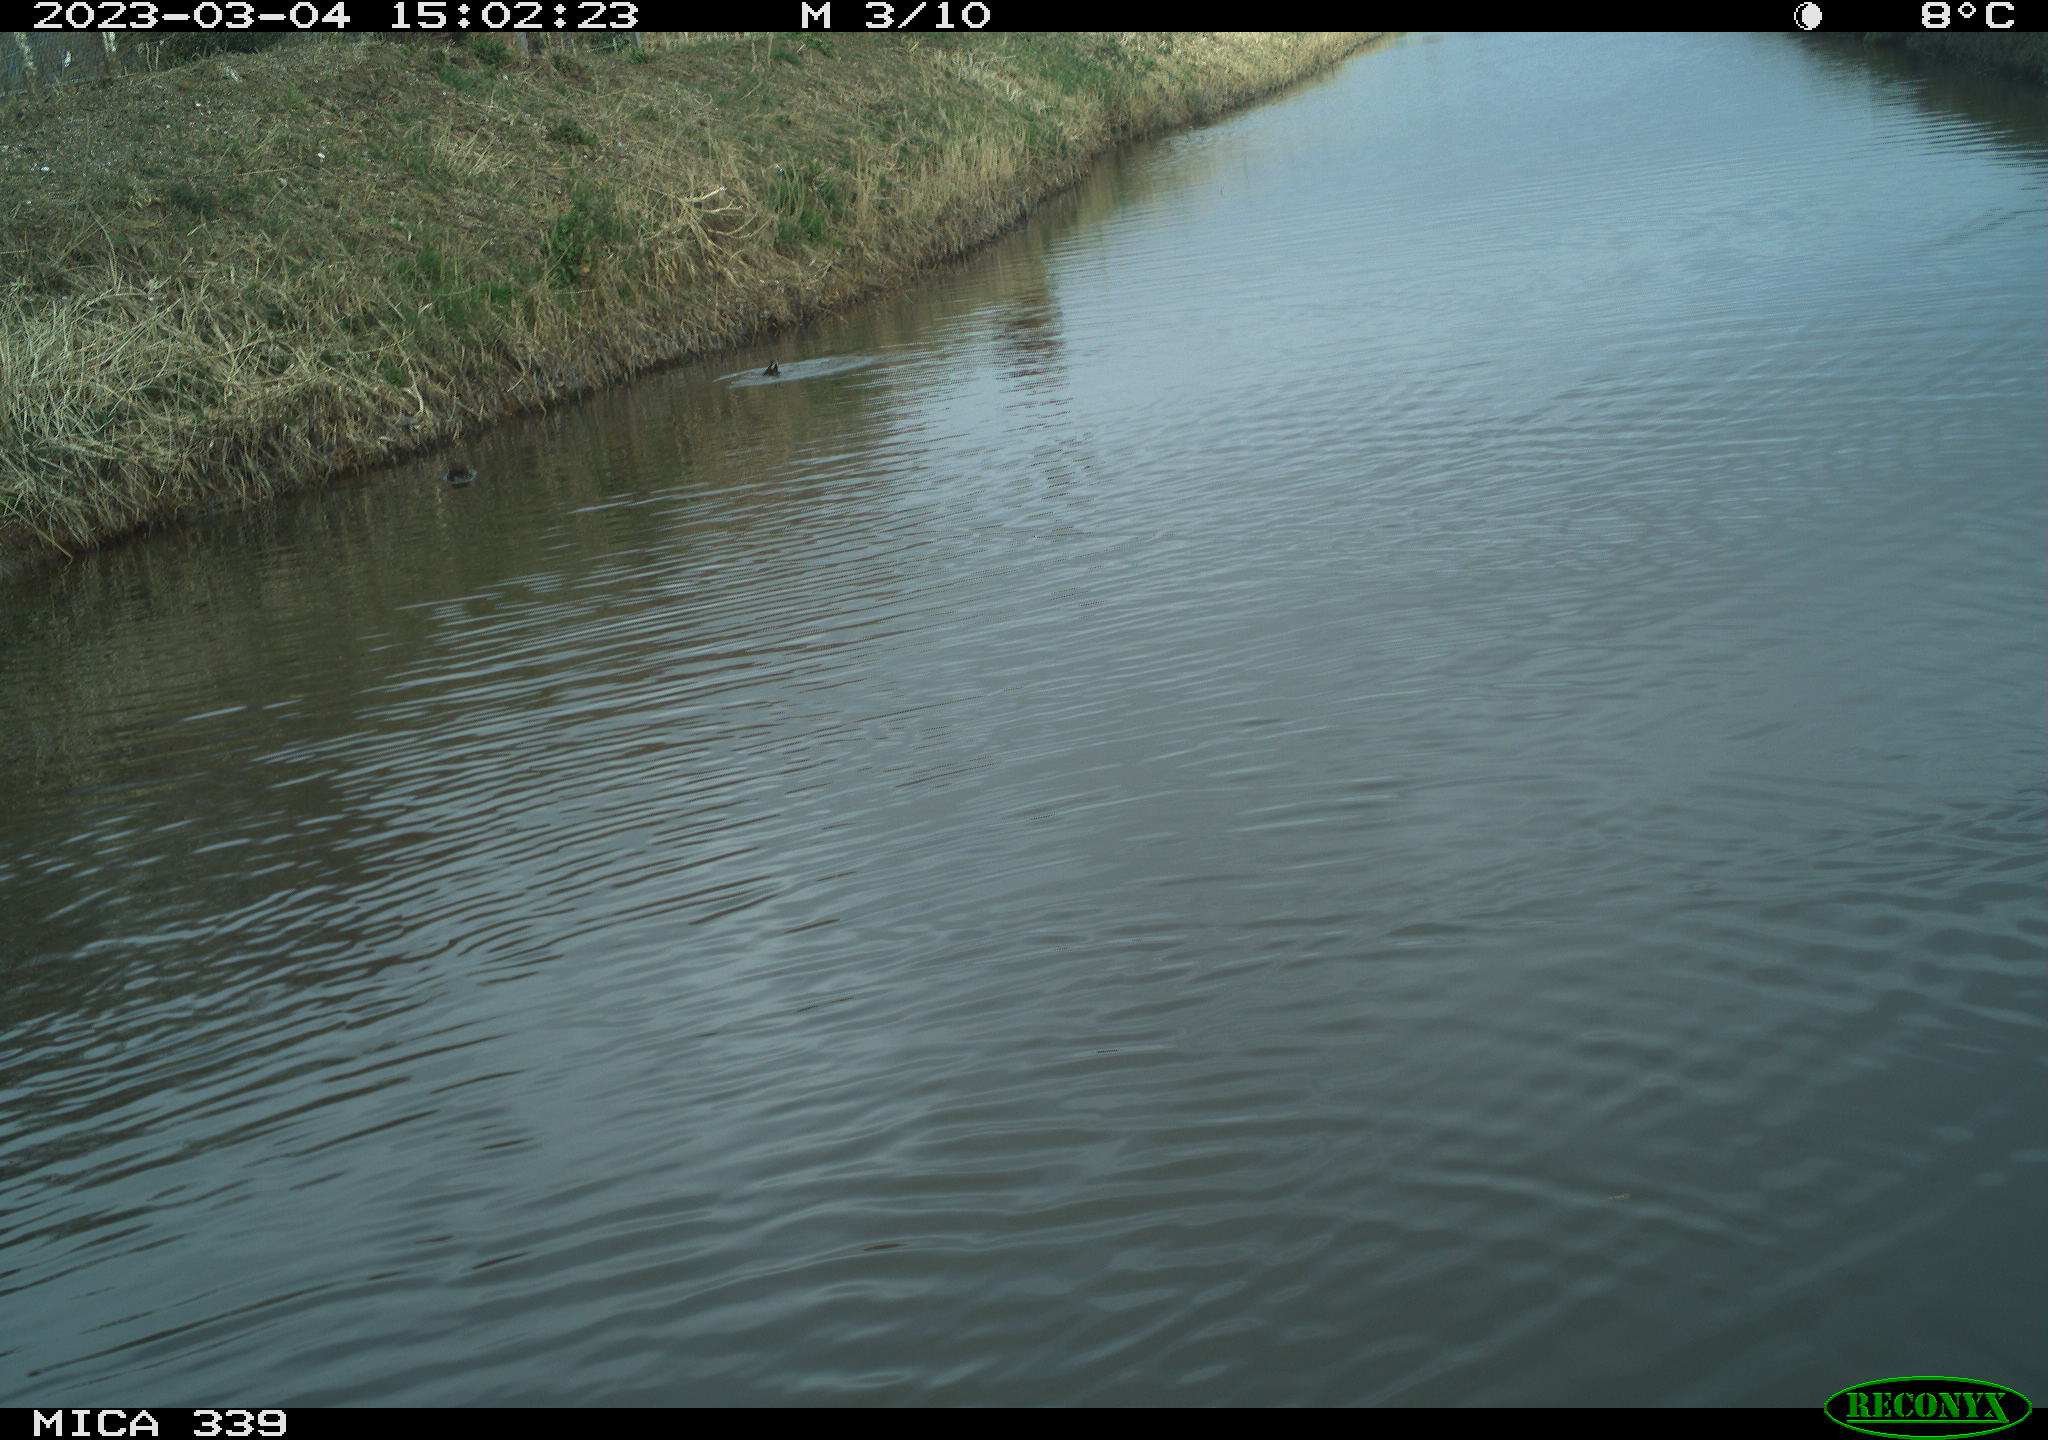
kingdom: Animalia
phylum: Chordata
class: Aves
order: Gruiformes
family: Rallidae
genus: Fulica
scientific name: Fulica atra
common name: Eurasian coot
